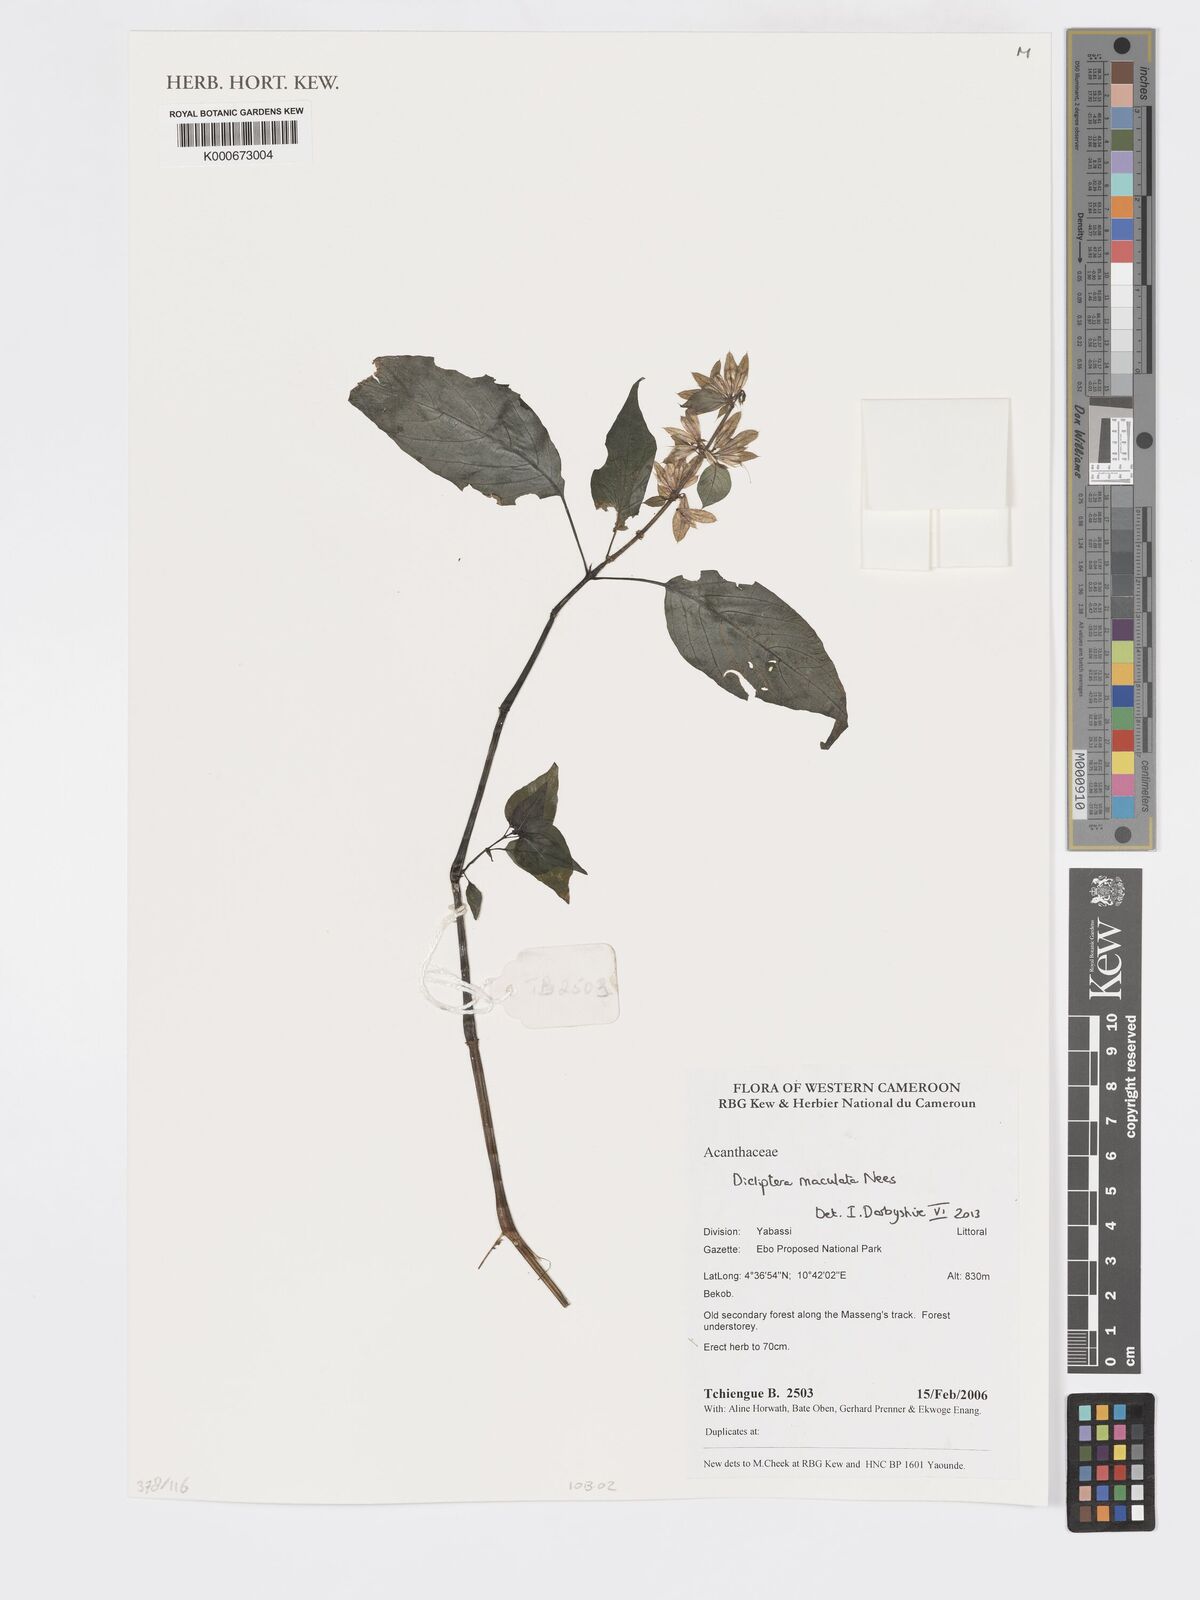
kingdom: Plantae
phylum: Tracheophyta
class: Magnoliopsida
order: Lamiales
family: Acanthaceae
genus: Dicliptera
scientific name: Dicliptera maculata
